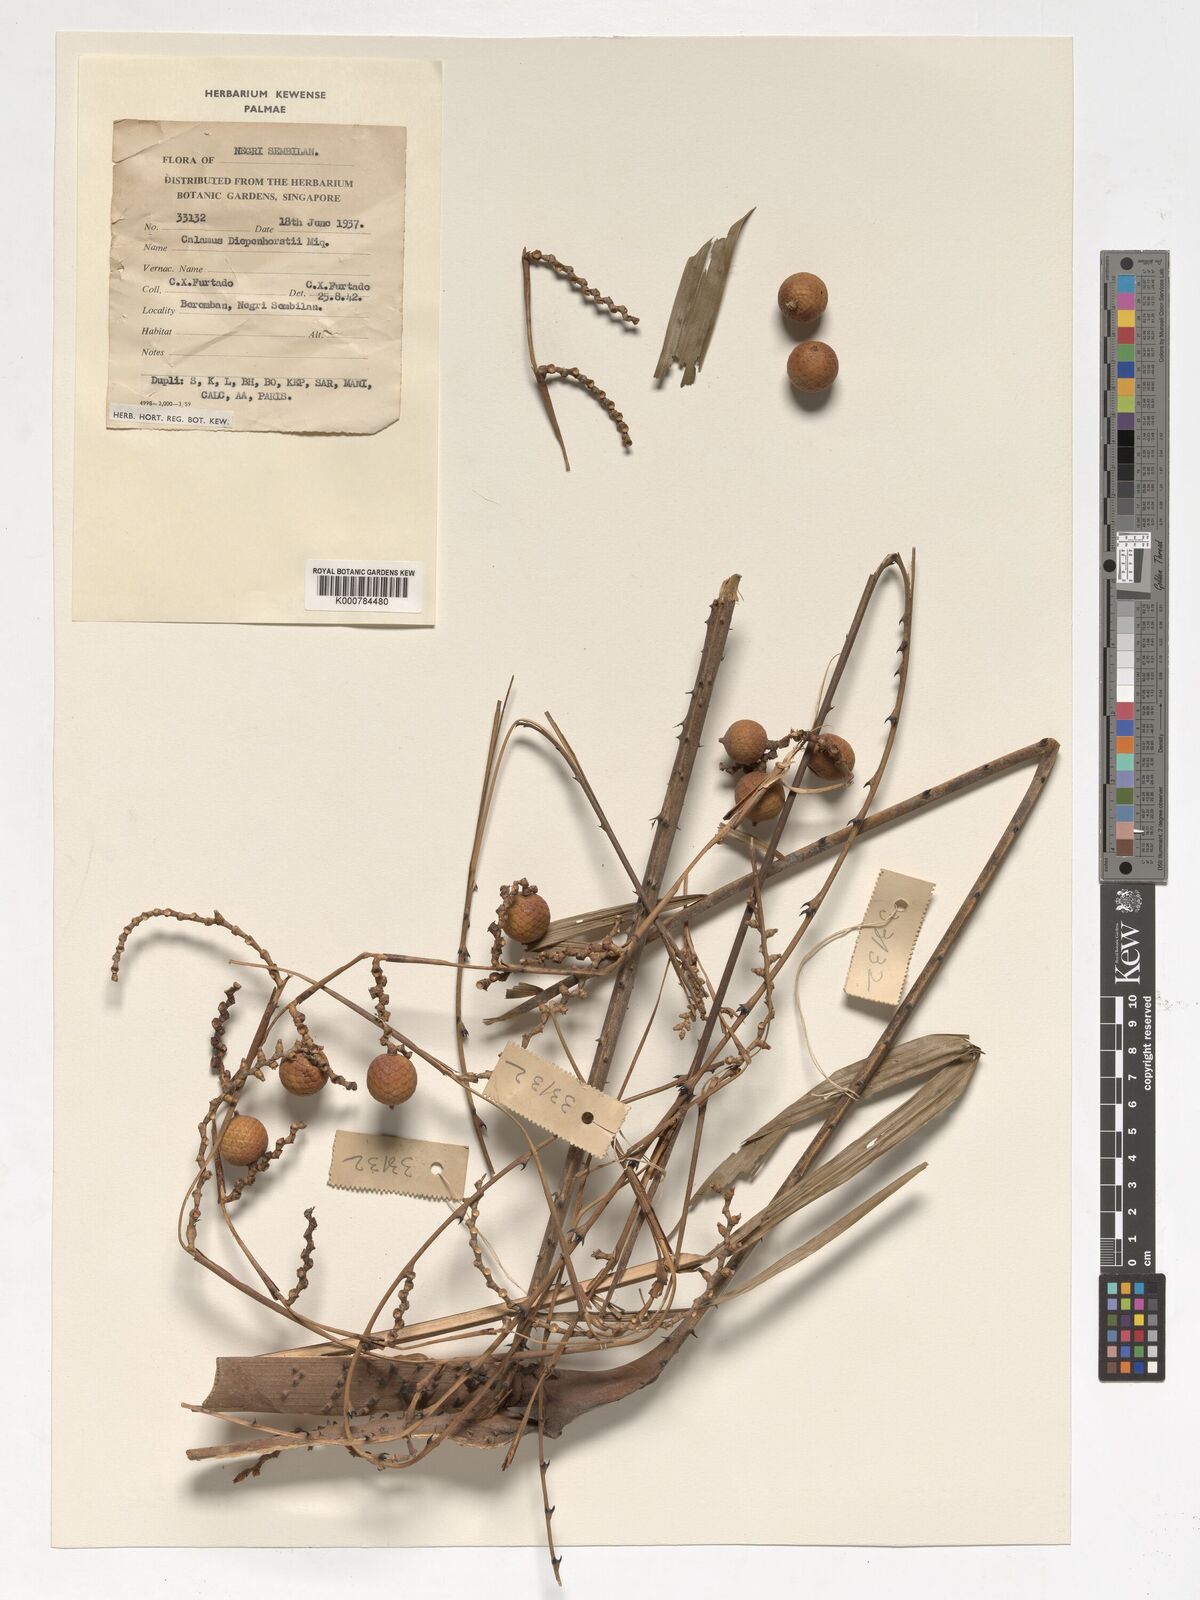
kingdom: Plantae
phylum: Tracheophyta
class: Liliopsida
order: Arecales
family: Arecaceae
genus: Calamus
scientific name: Calamus diepenhorstii
